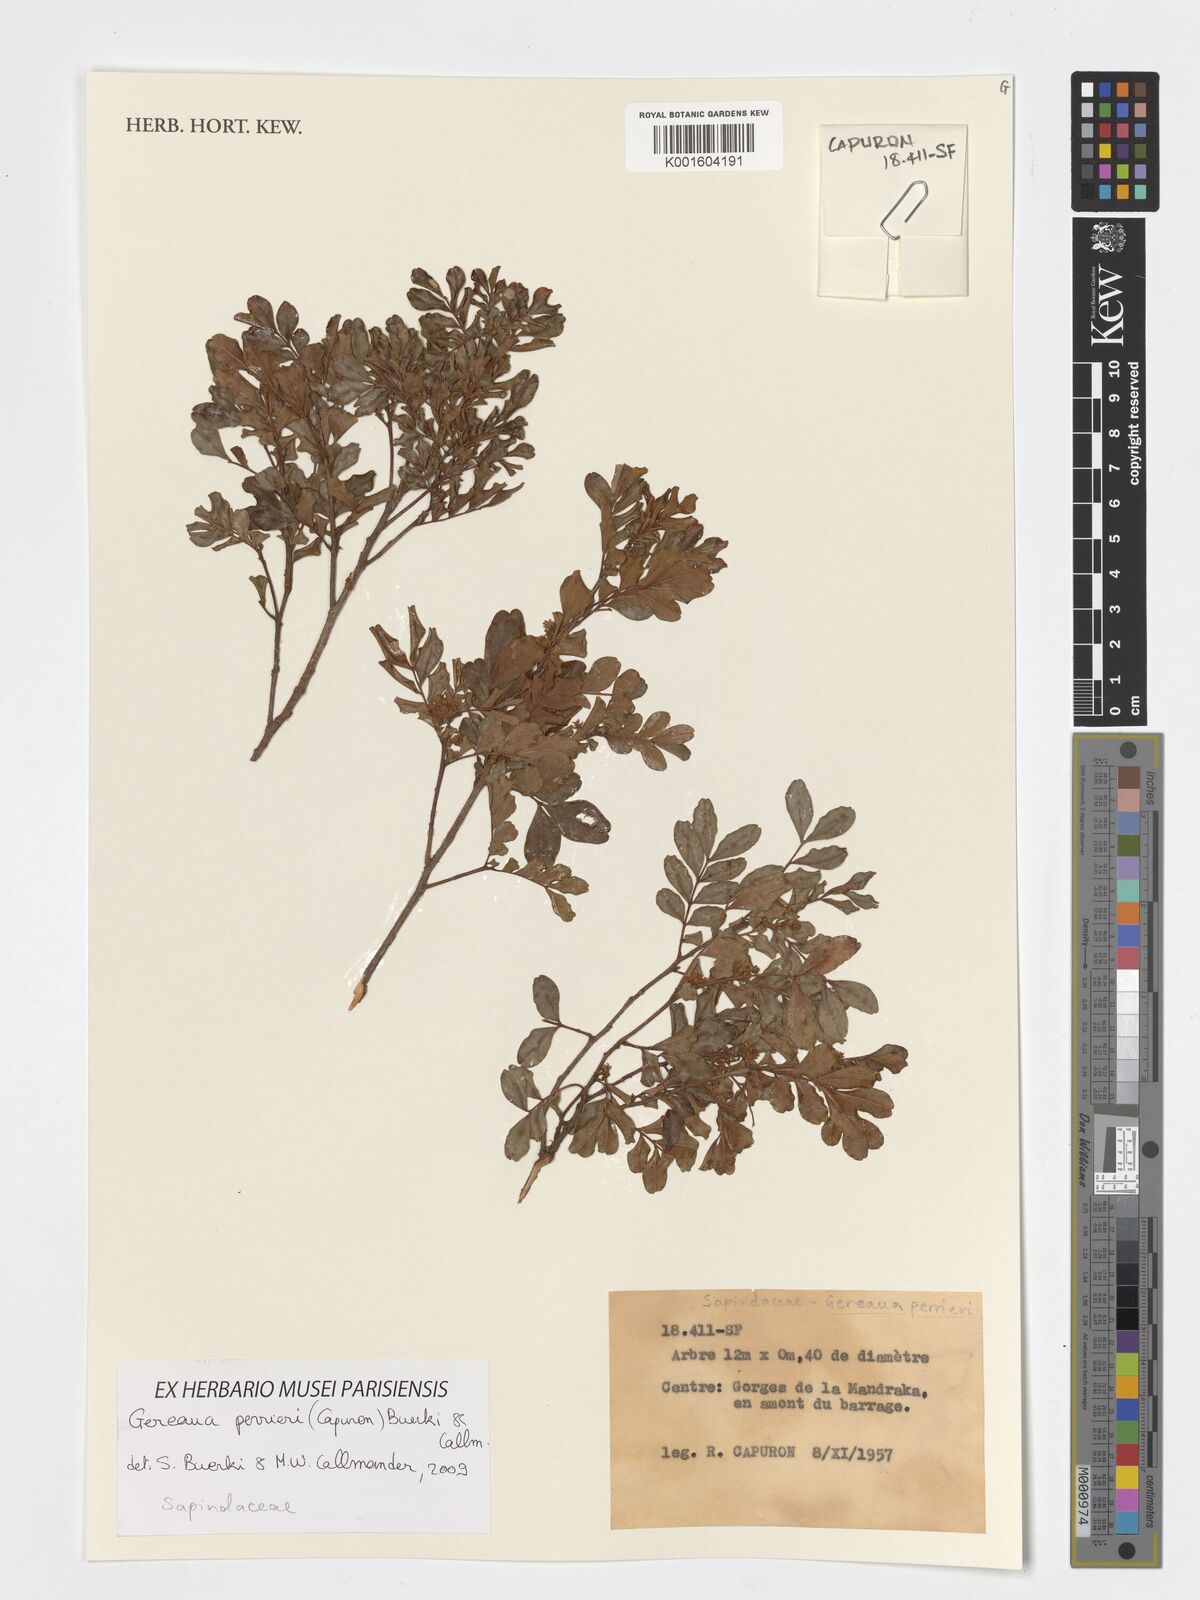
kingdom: Plantae
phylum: Tracheophyta
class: Magnoliopsida
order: Sapindales
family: Sapindaceae
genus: Gereaua
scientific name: Gereaua perrieri
